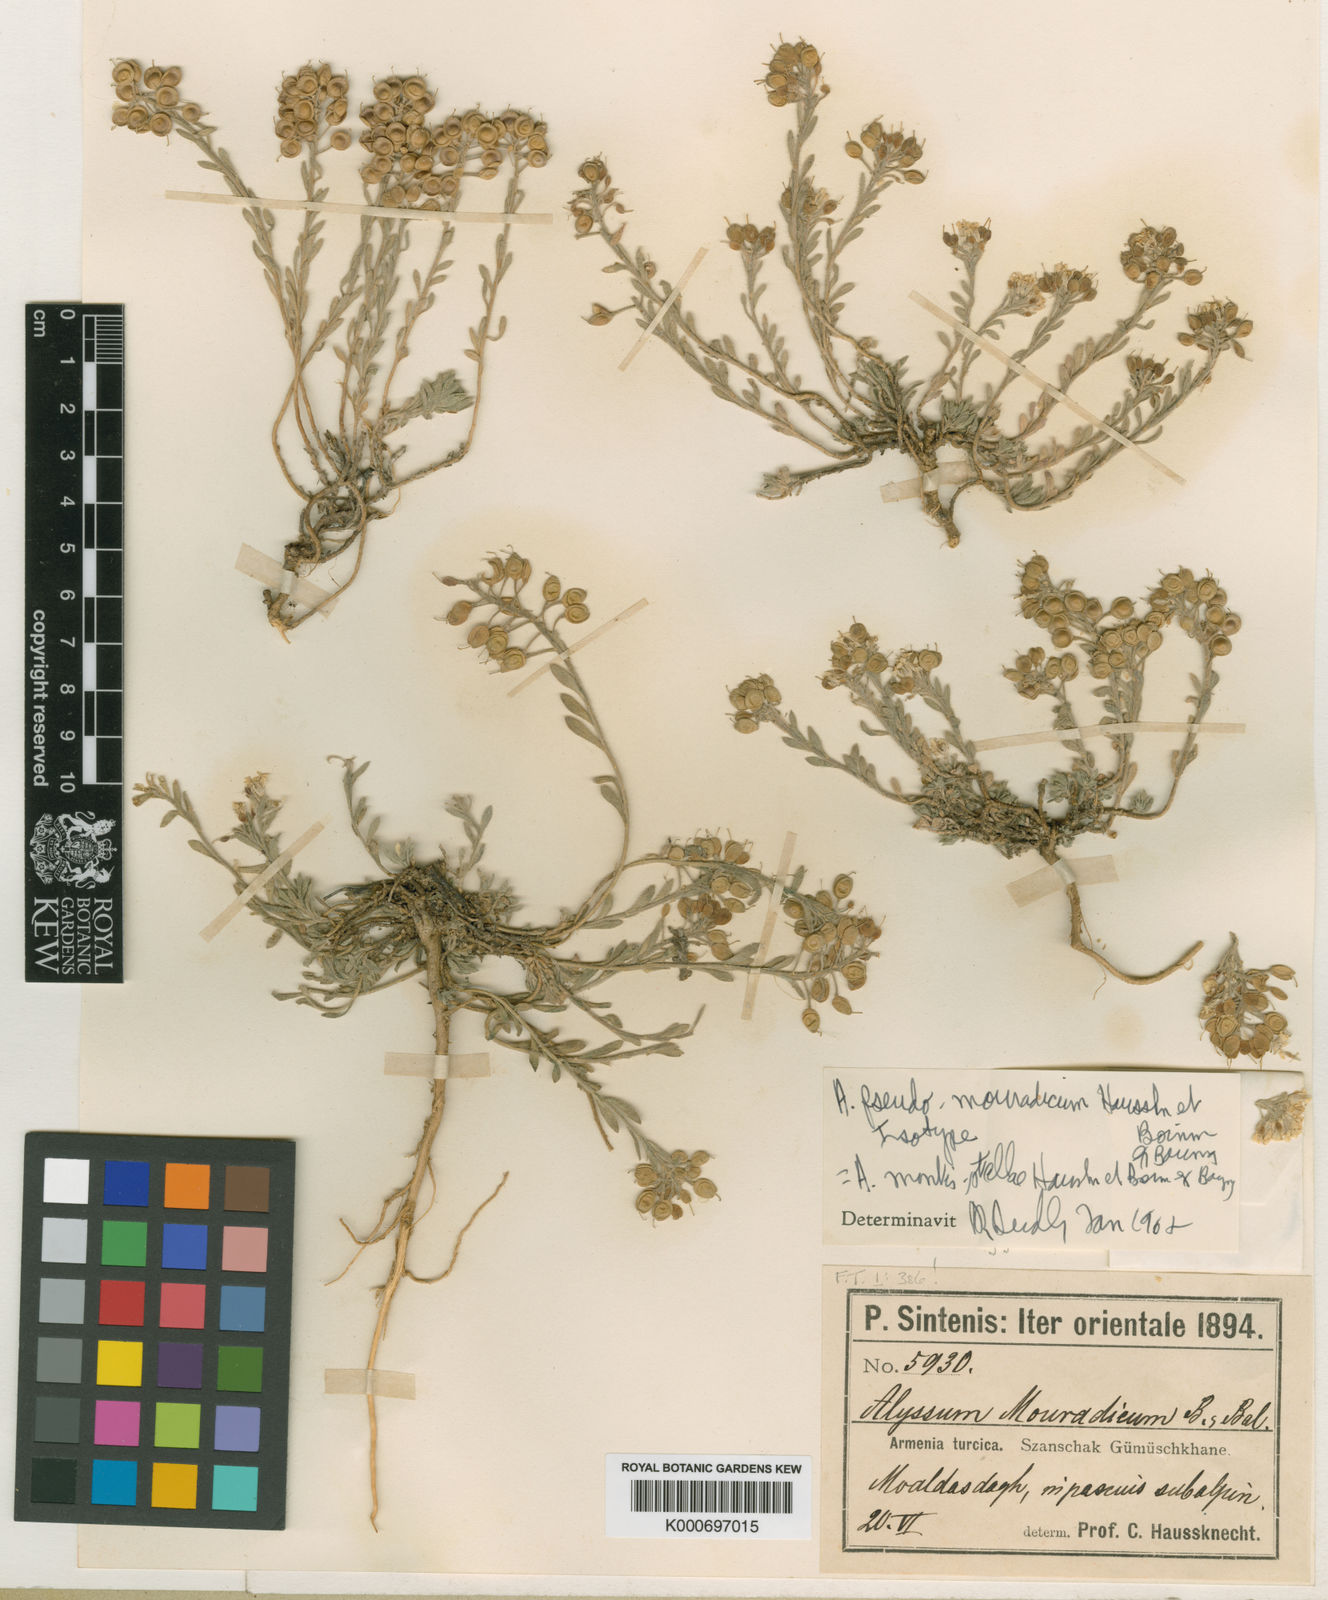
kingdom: Plantae
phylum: Tracheophyta
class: Magnoliopsida
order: Brassicales
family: Brassicaceae
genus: Alyssum
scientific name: Alyssum pseudomouradicum
